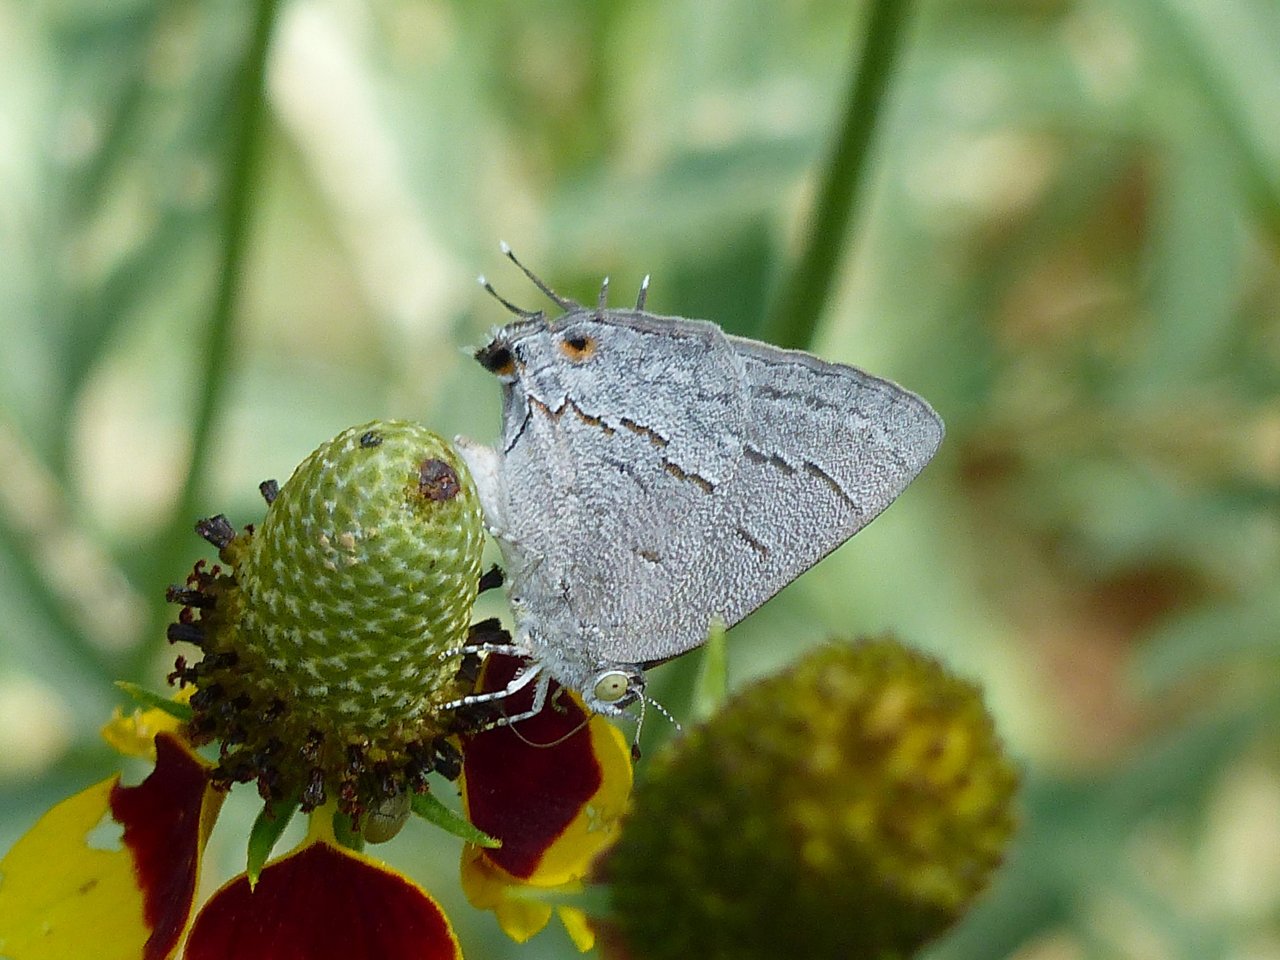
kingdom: Animalia
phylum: Arthropoda
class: Insecta
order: Lepidoptera
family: Lycaenidae
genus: Ministrymon
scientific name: Ministrymon leda
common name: Leda Ministreak
